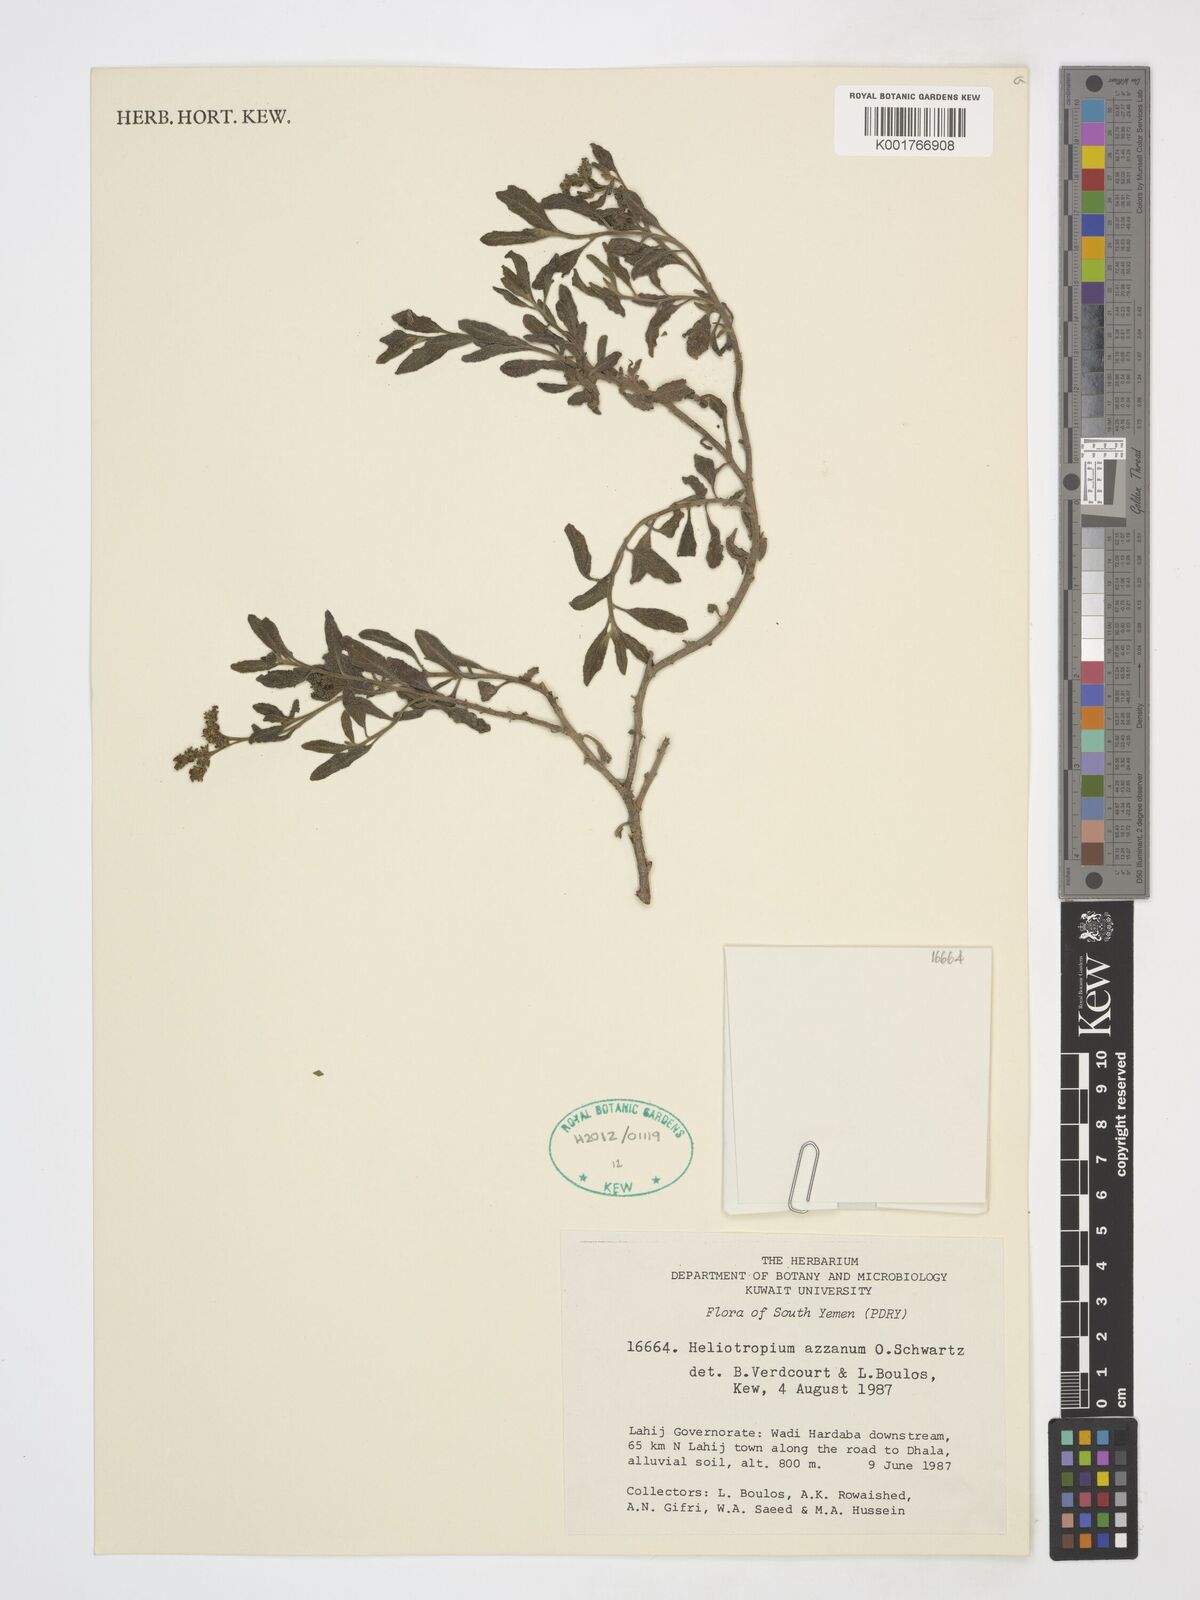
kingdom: Plantae
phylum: Tracheophyta
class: Magnoliopsida
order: Boraginales
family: Heliotropiaceae
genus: Heliotropium
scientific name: Heliotropium azzanum
